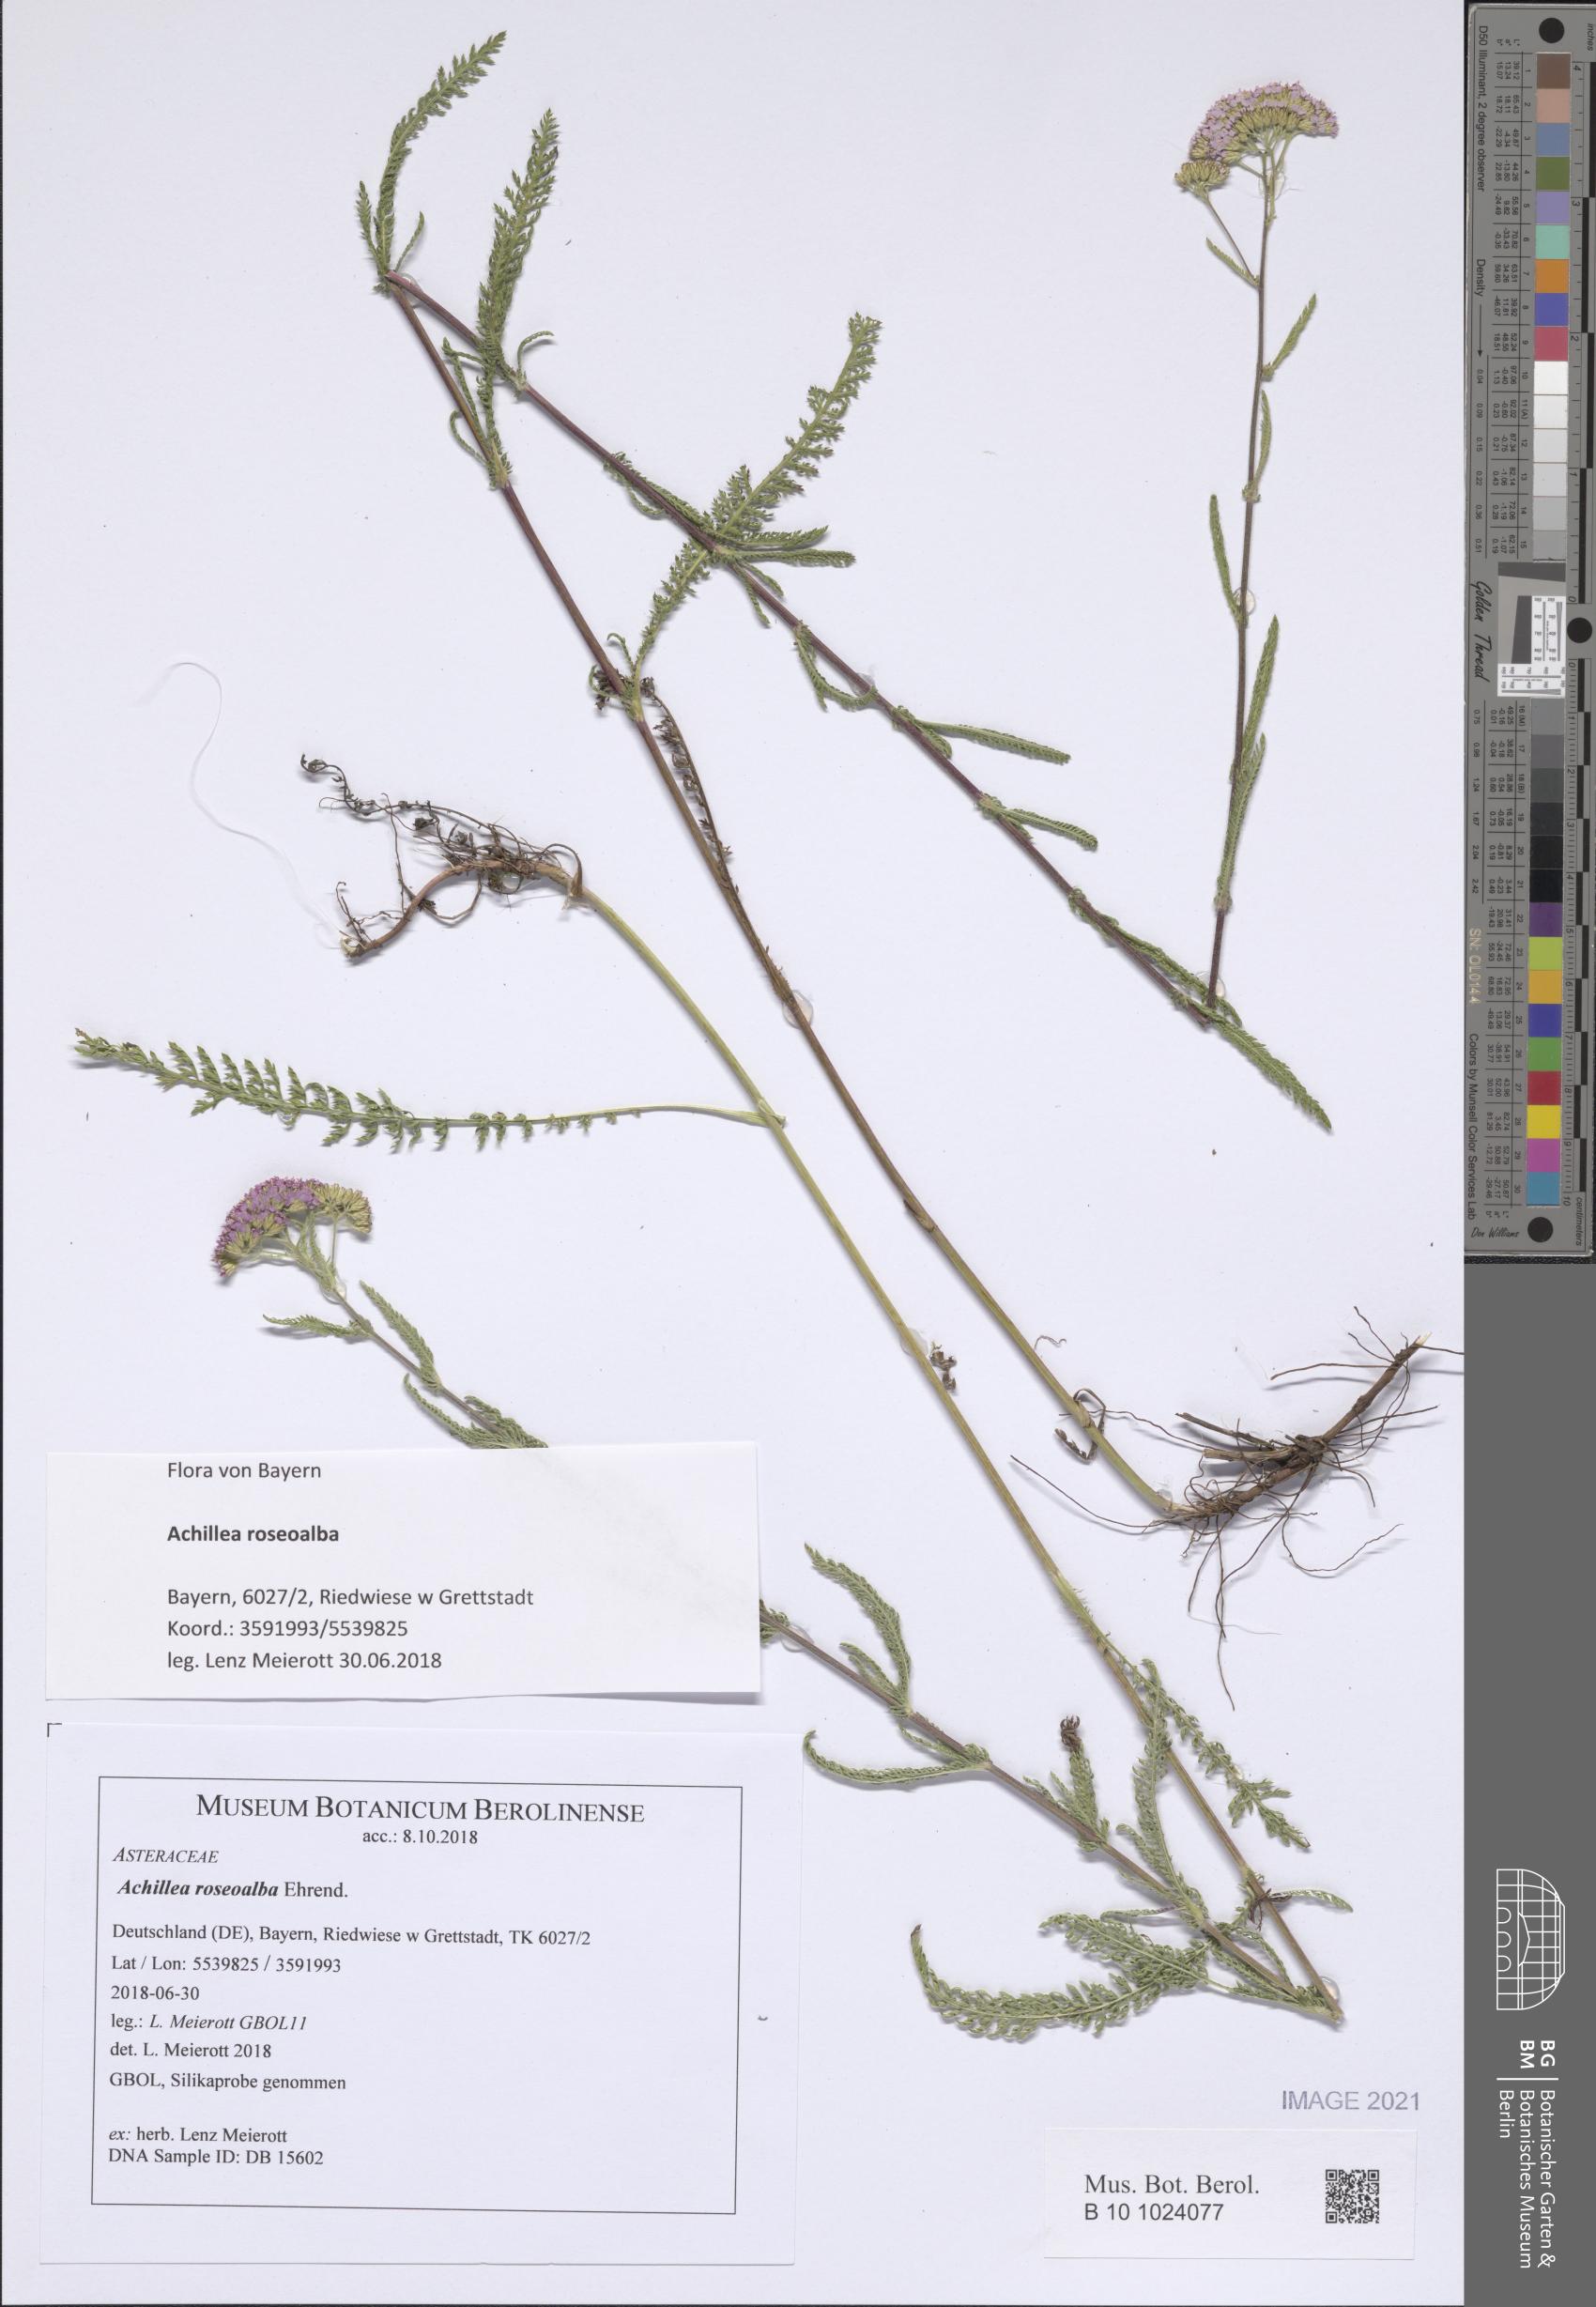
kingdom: Plantae
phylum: Tracheophyta
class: Magnoliopsida
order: Asterales
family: Asteraceae
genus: Achillea
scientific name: Achillea roseoalba
